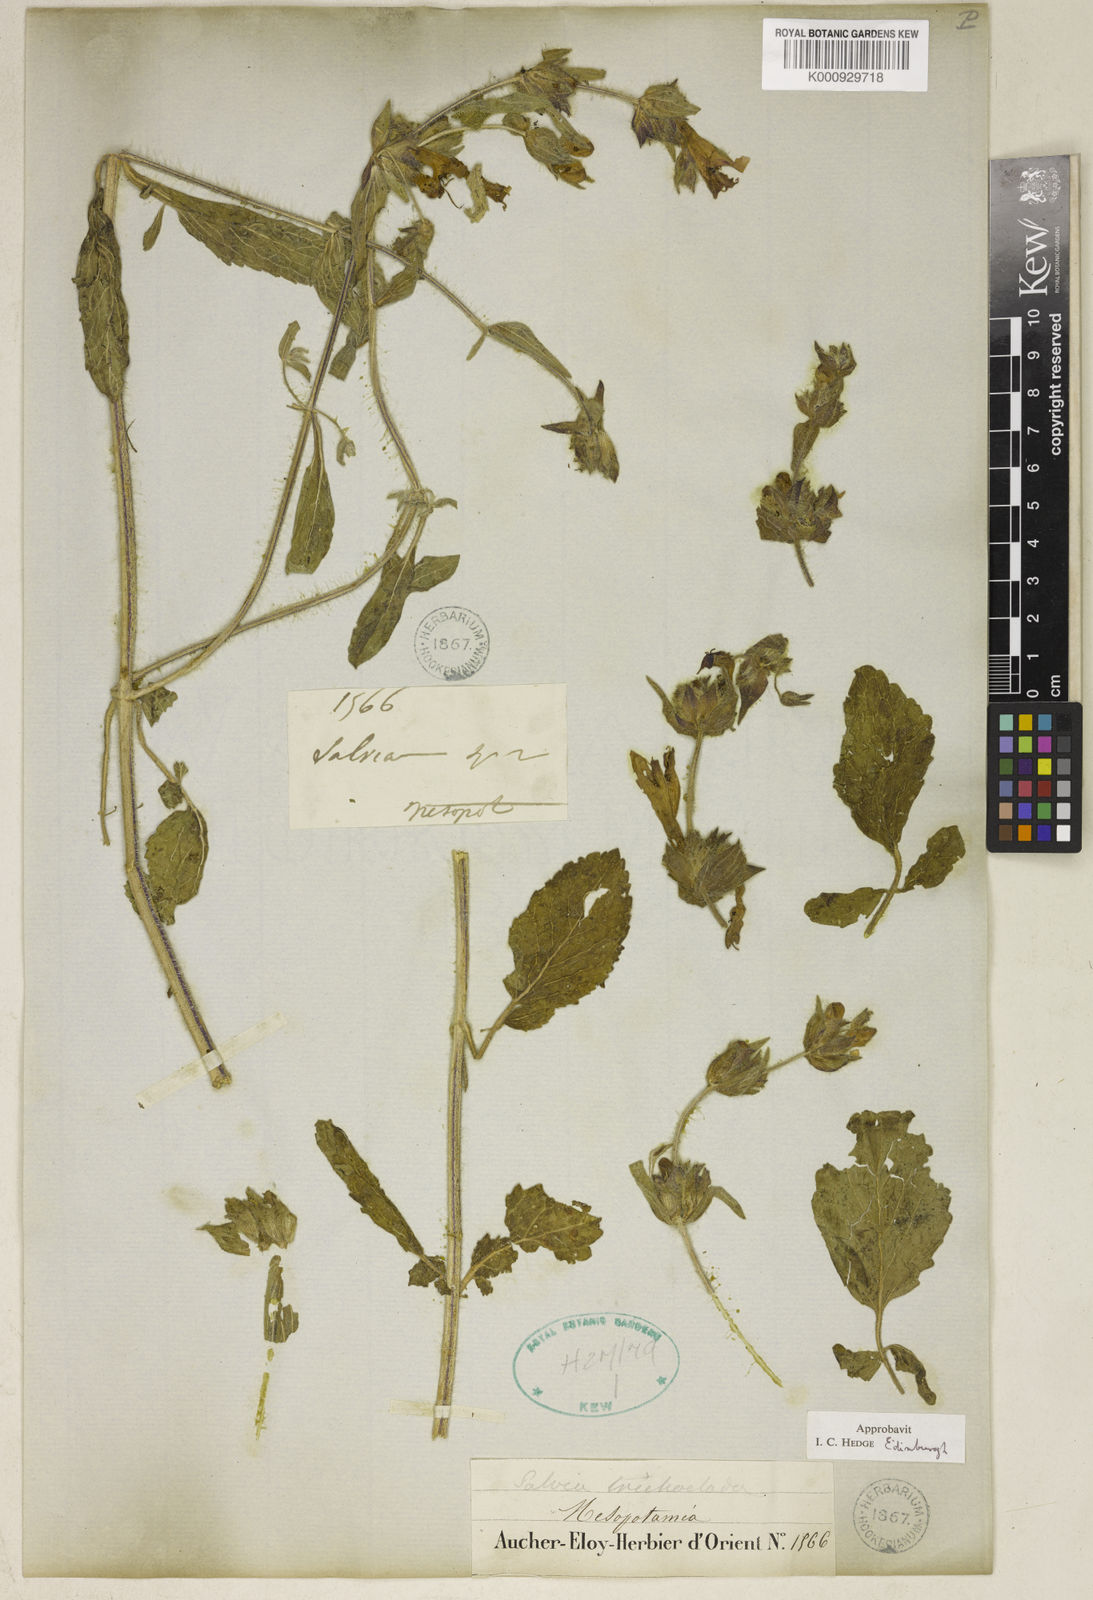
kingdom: Plantae
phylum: Tracheophyta
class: Magnoliopsida
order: Lamiales
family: Lamiaceae
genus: Salvia
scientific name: Salvia trichoclada
